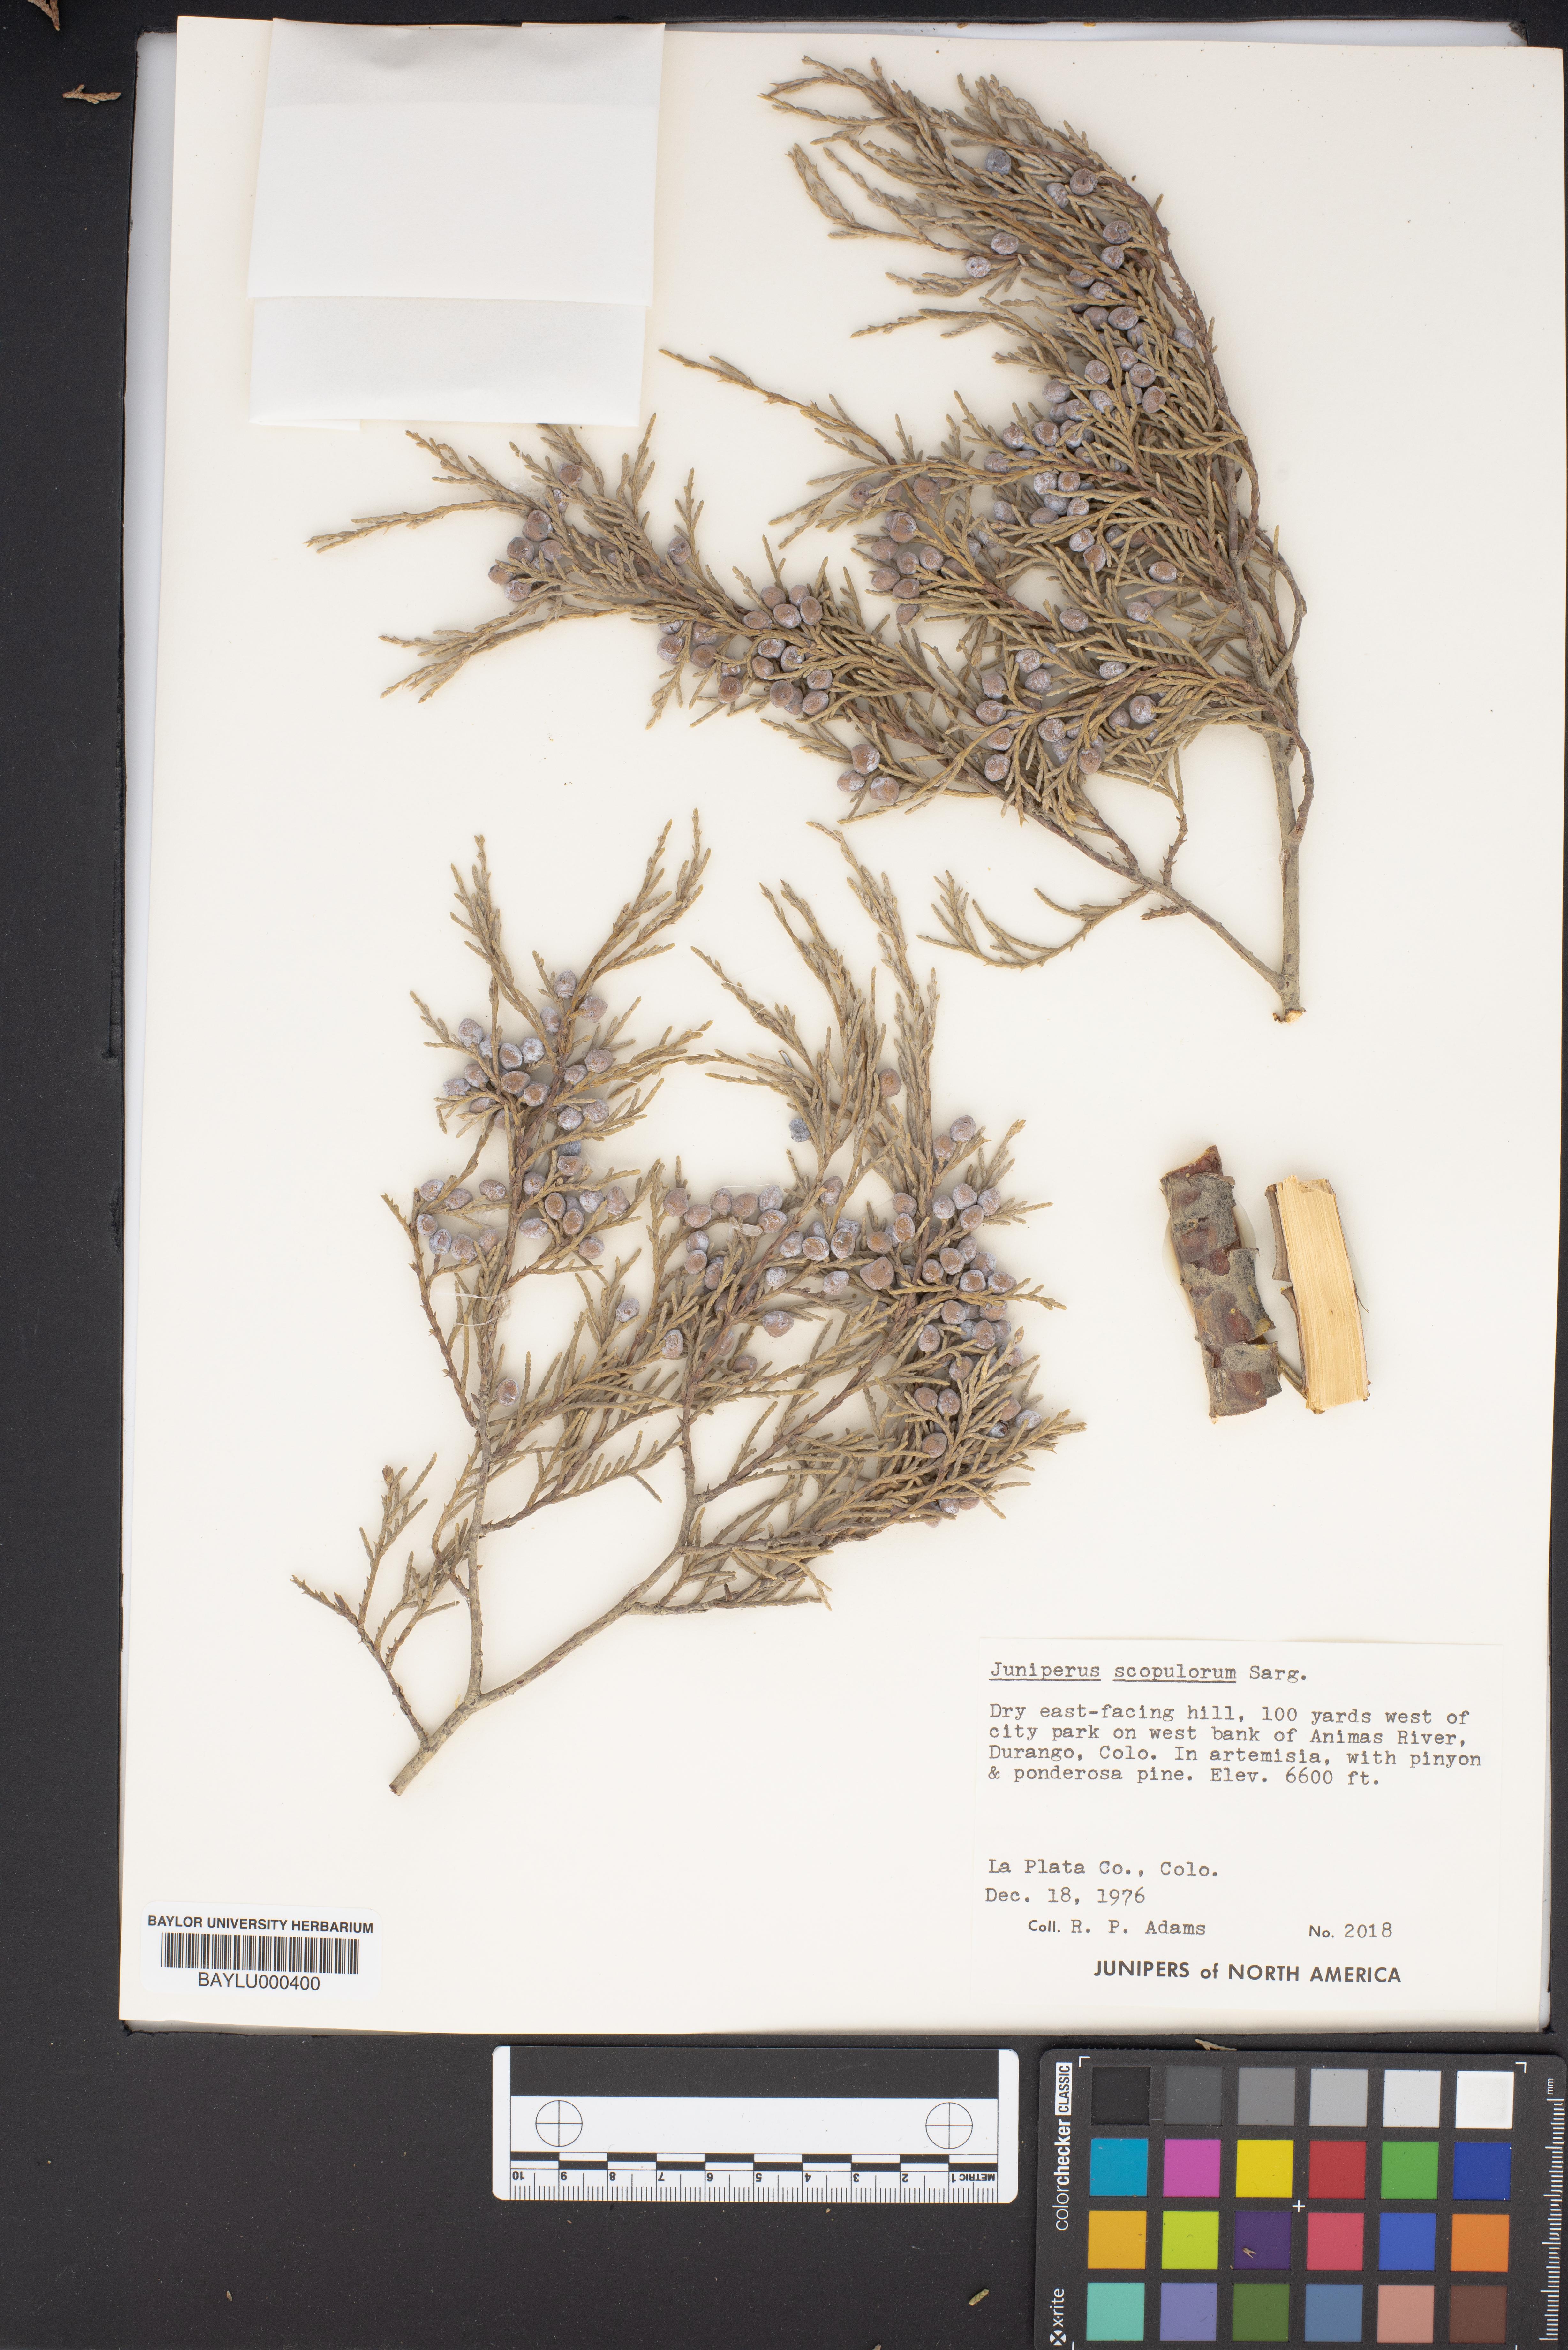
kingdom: Plantae
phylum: Tracheophyta
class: Pinopsida
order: Pinales
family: Cupressaceae
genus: Juniperus
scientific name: Juniperus scopulorum
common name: Rocky mountain juniper
